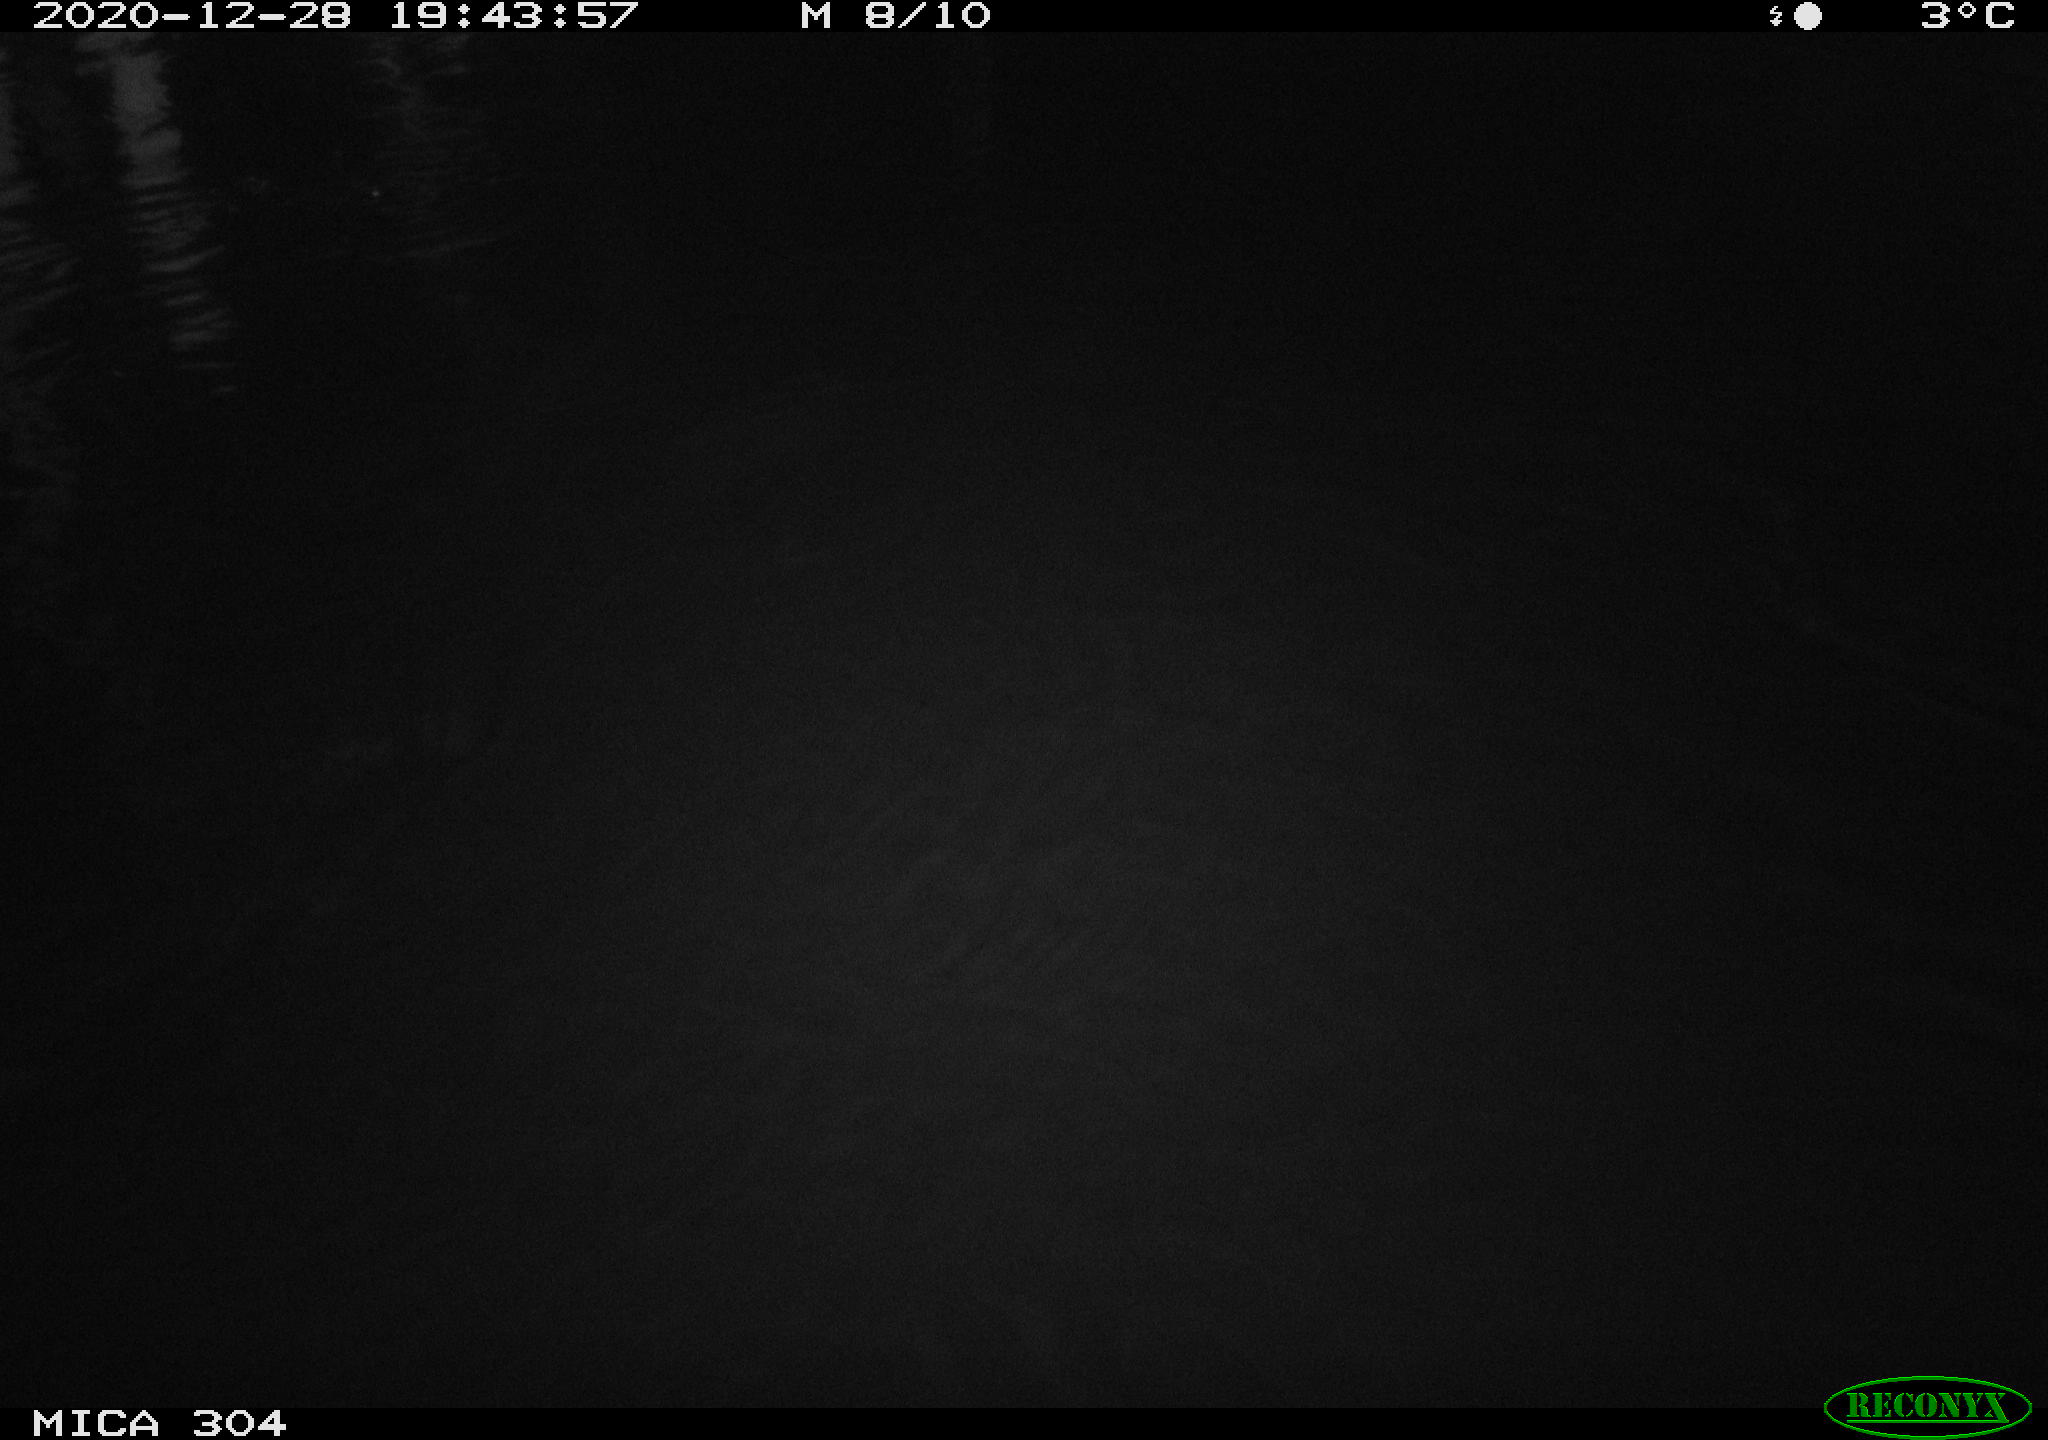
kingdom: Animalia
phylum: Chordata
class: Mammalia
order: Rodentia
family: Muridae
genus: Rattus
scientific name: Rattus norvegicus
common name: Brown rat
